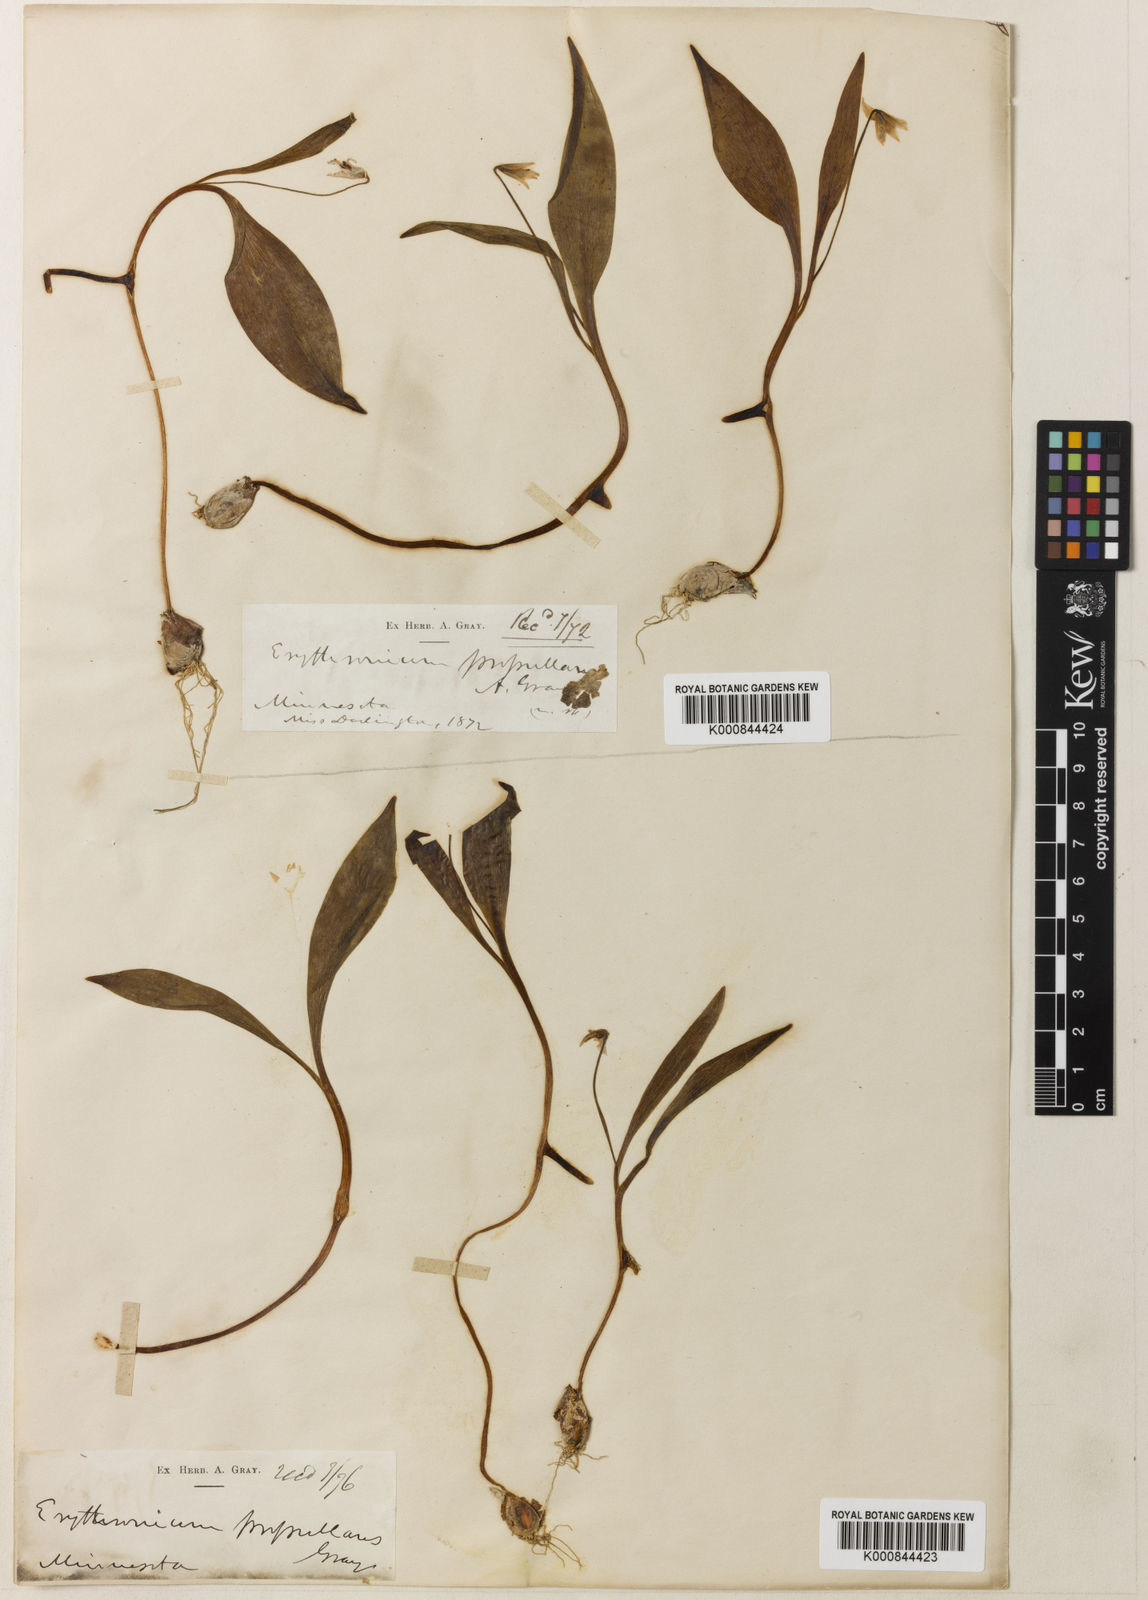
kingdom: Plantae
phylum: Tracheophyta
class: Liliopsida
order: Liliales
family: Liliaceae
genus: Erythronium
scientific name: Erythronium propullans
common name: Minnesota dwarf trout-lily
